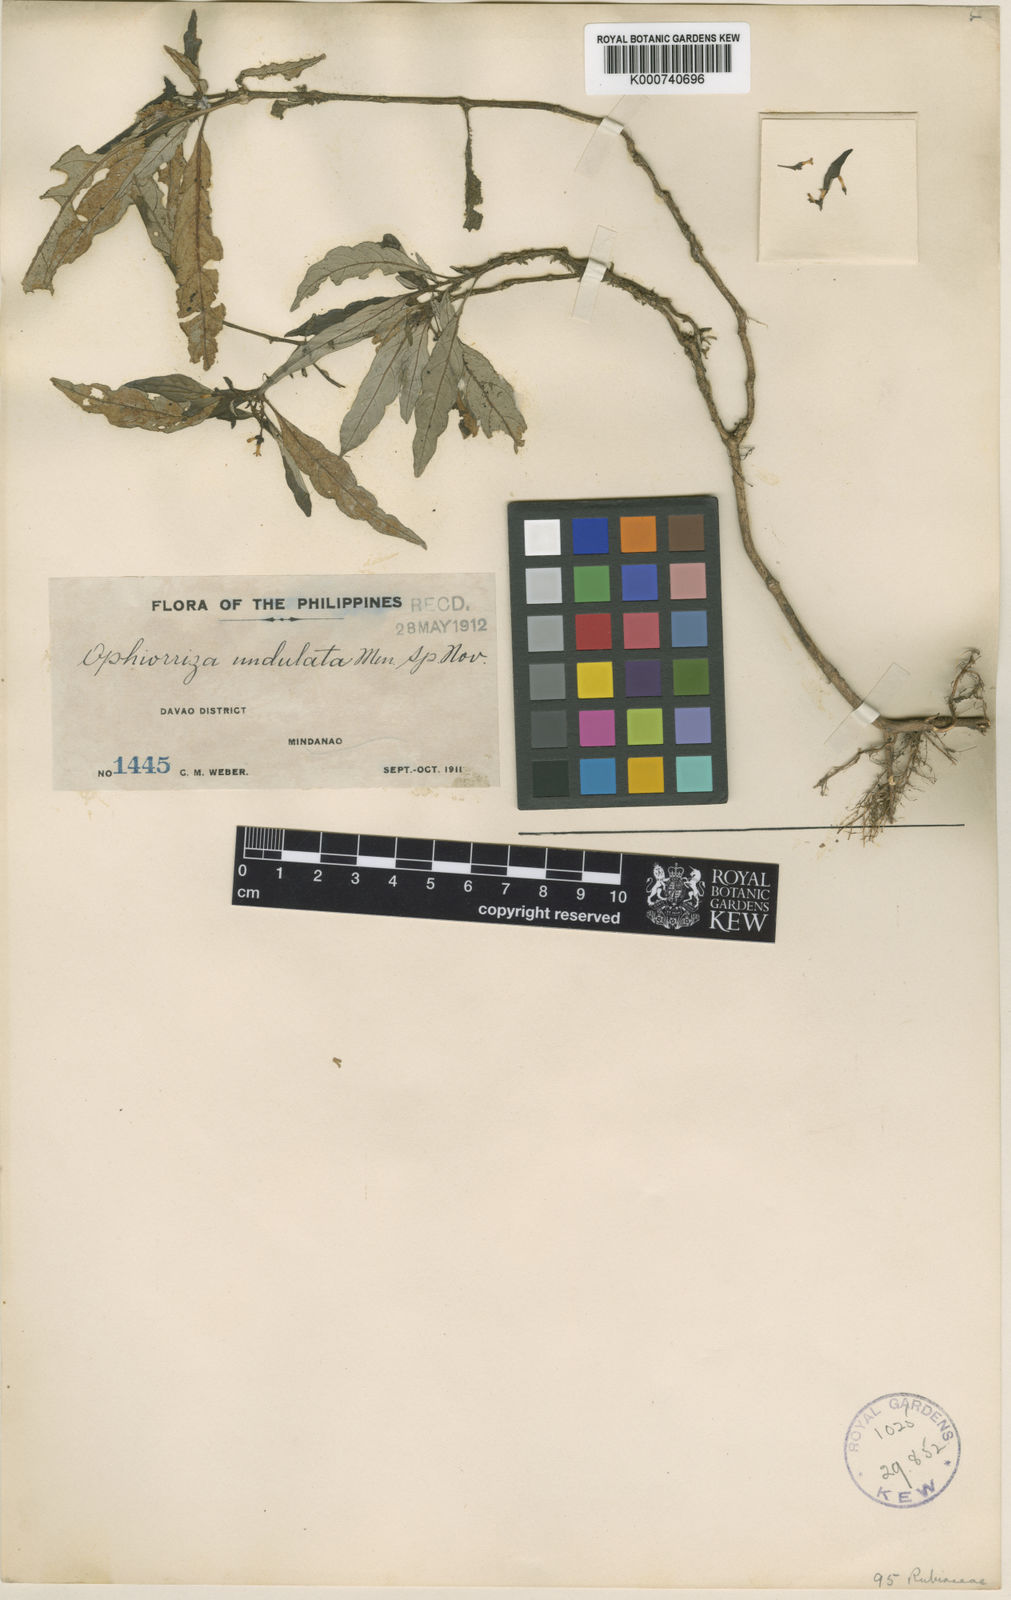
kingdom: Plantae
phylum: Tracheophyta
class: Magnoliopsida
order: Gentianales
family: Rubiaceae
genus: Ophiorrhiza
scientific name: Ophiorrhiza undulata
